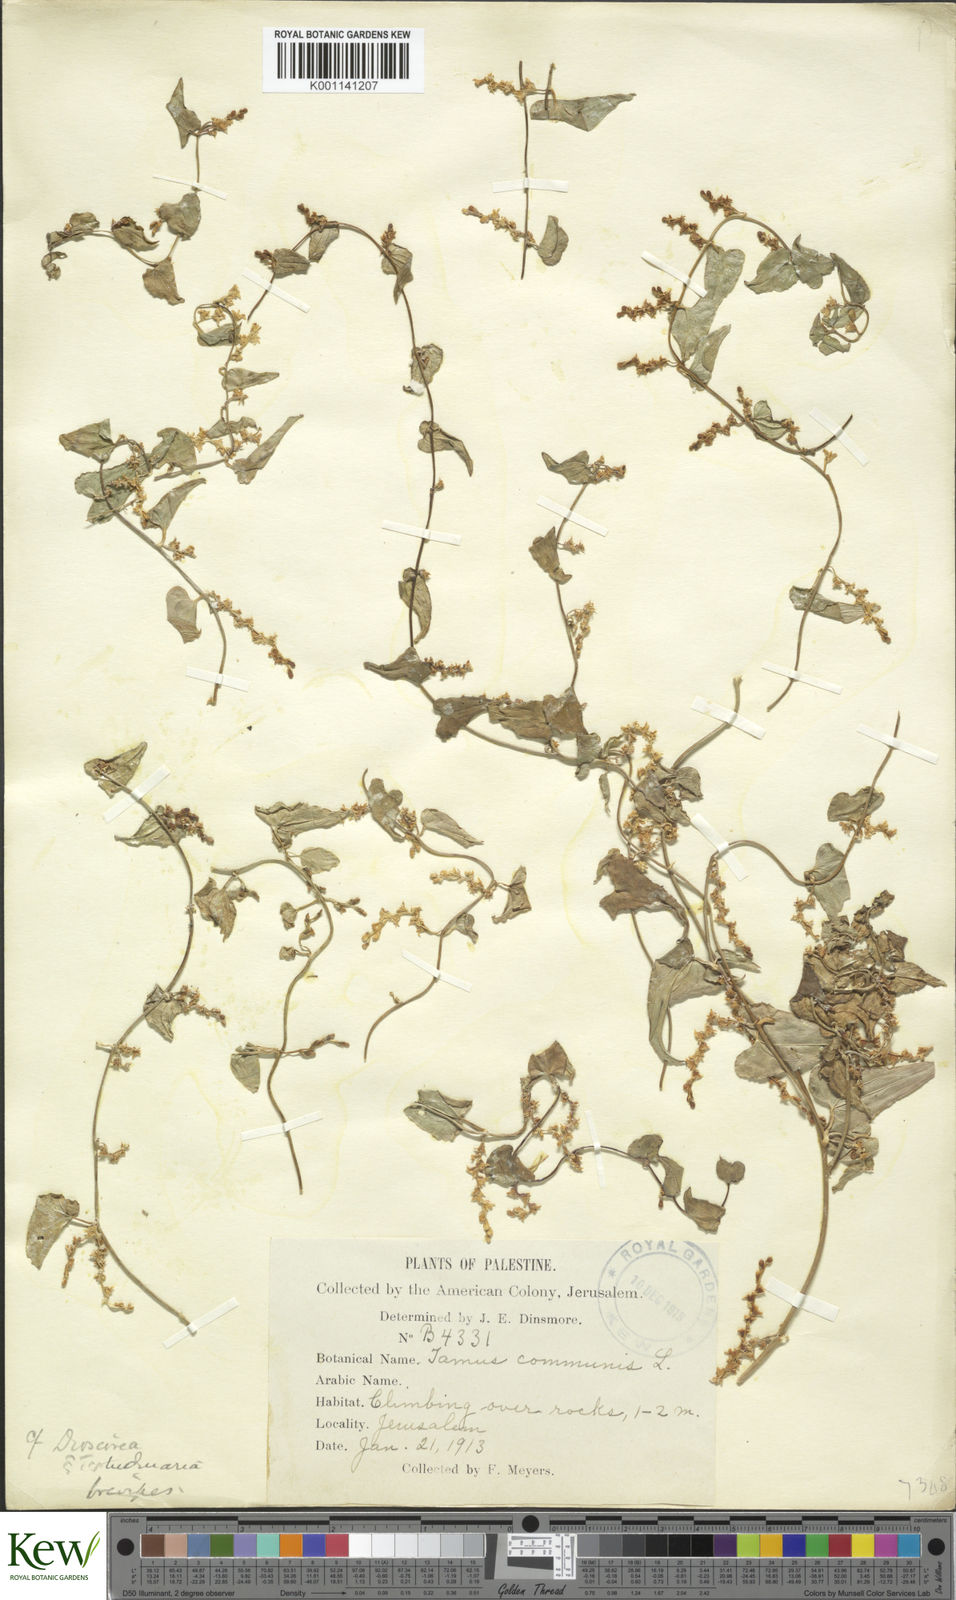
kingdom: Plantae
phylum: Tracheophyta
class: Liliopsida
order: Dioscoreales
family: Dioscoreaceae
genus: Dioscorea
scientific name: Dioscorea communis
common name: Black-bindweed
